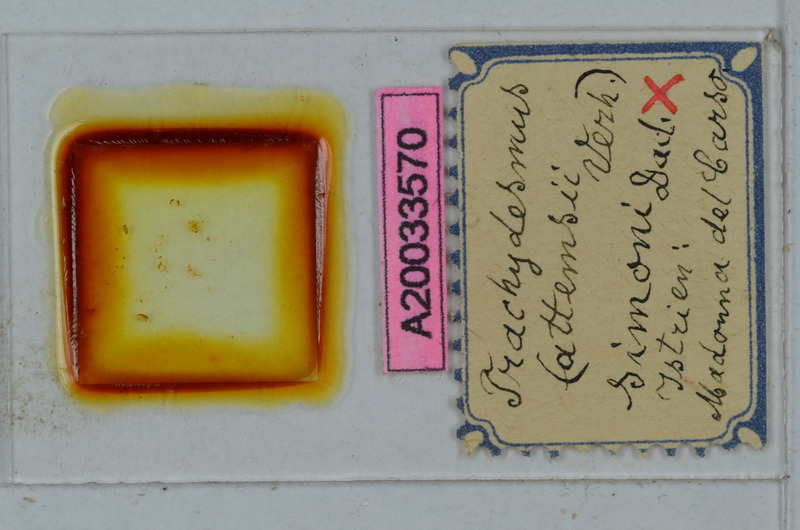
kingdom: Animalia
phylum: Arthropoda
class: Diplopoda
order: Polydesmida
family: Paradoxosomatidae
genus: Stosatea
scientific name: Stosatea simonii
